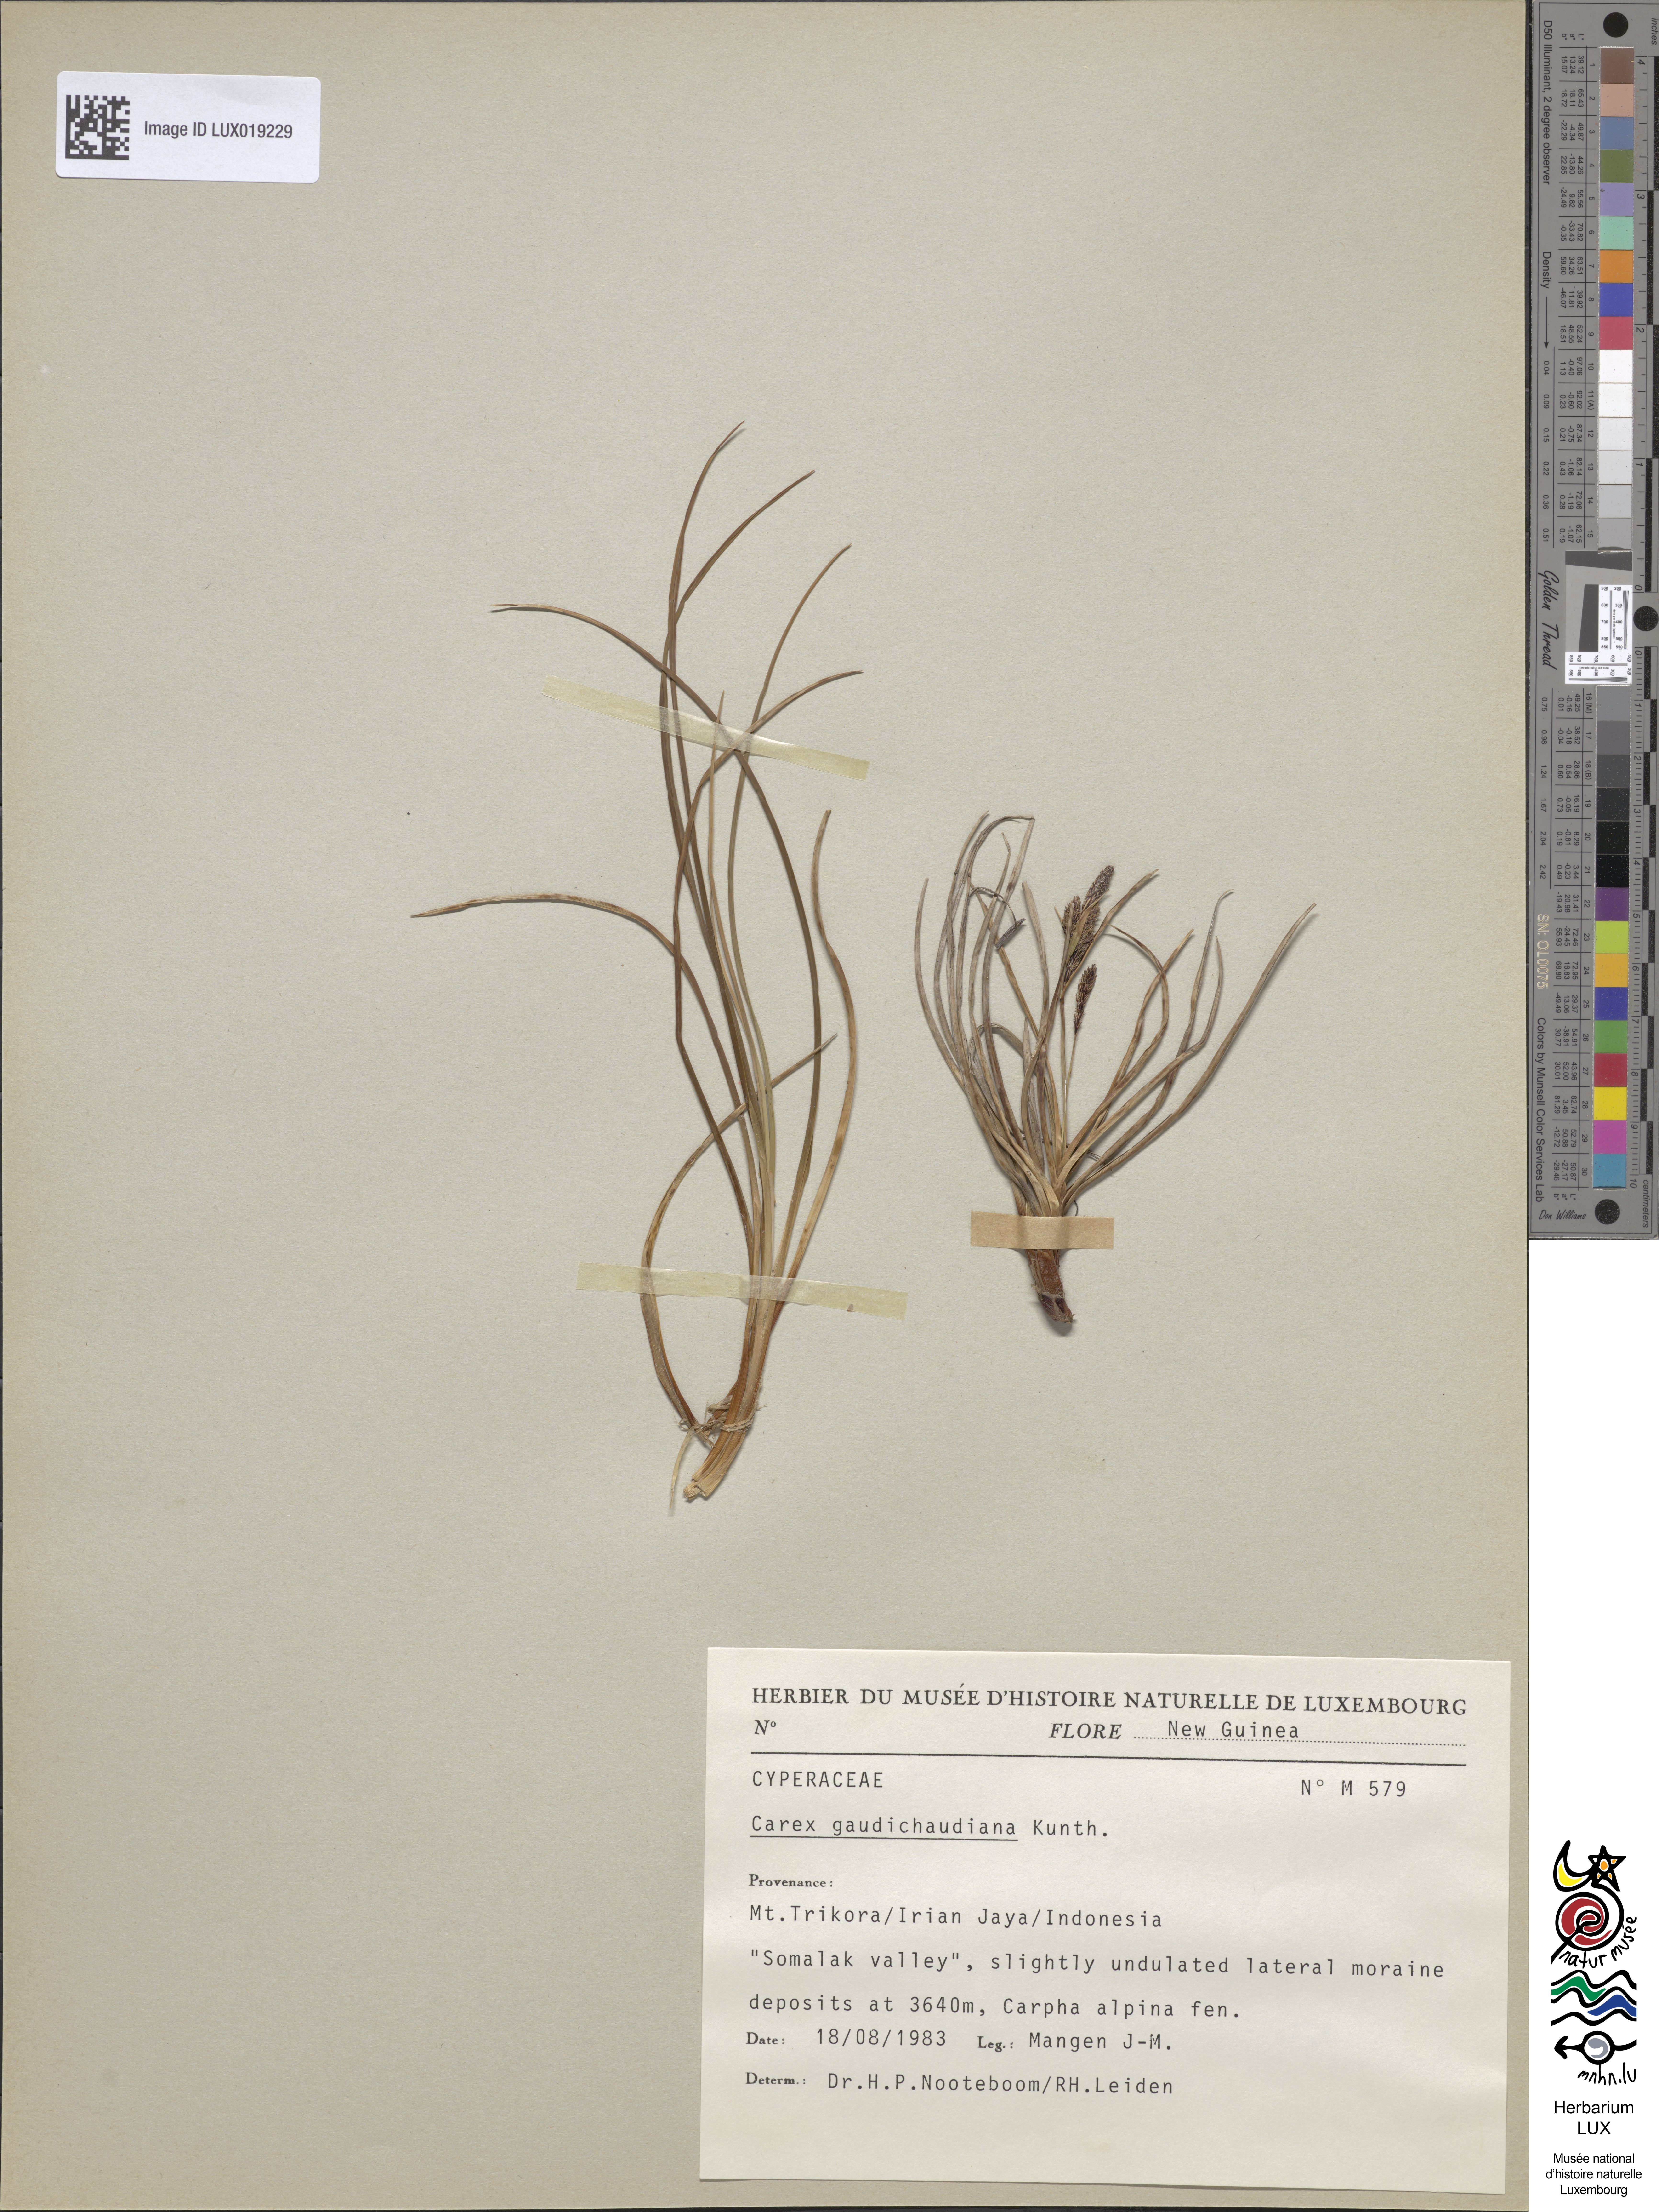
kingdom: Plantae
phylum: Tracheophyta
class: Liliopsida
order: Poales
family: Cyperaceae
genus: Carex
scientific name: Carex gaudichaudiana
